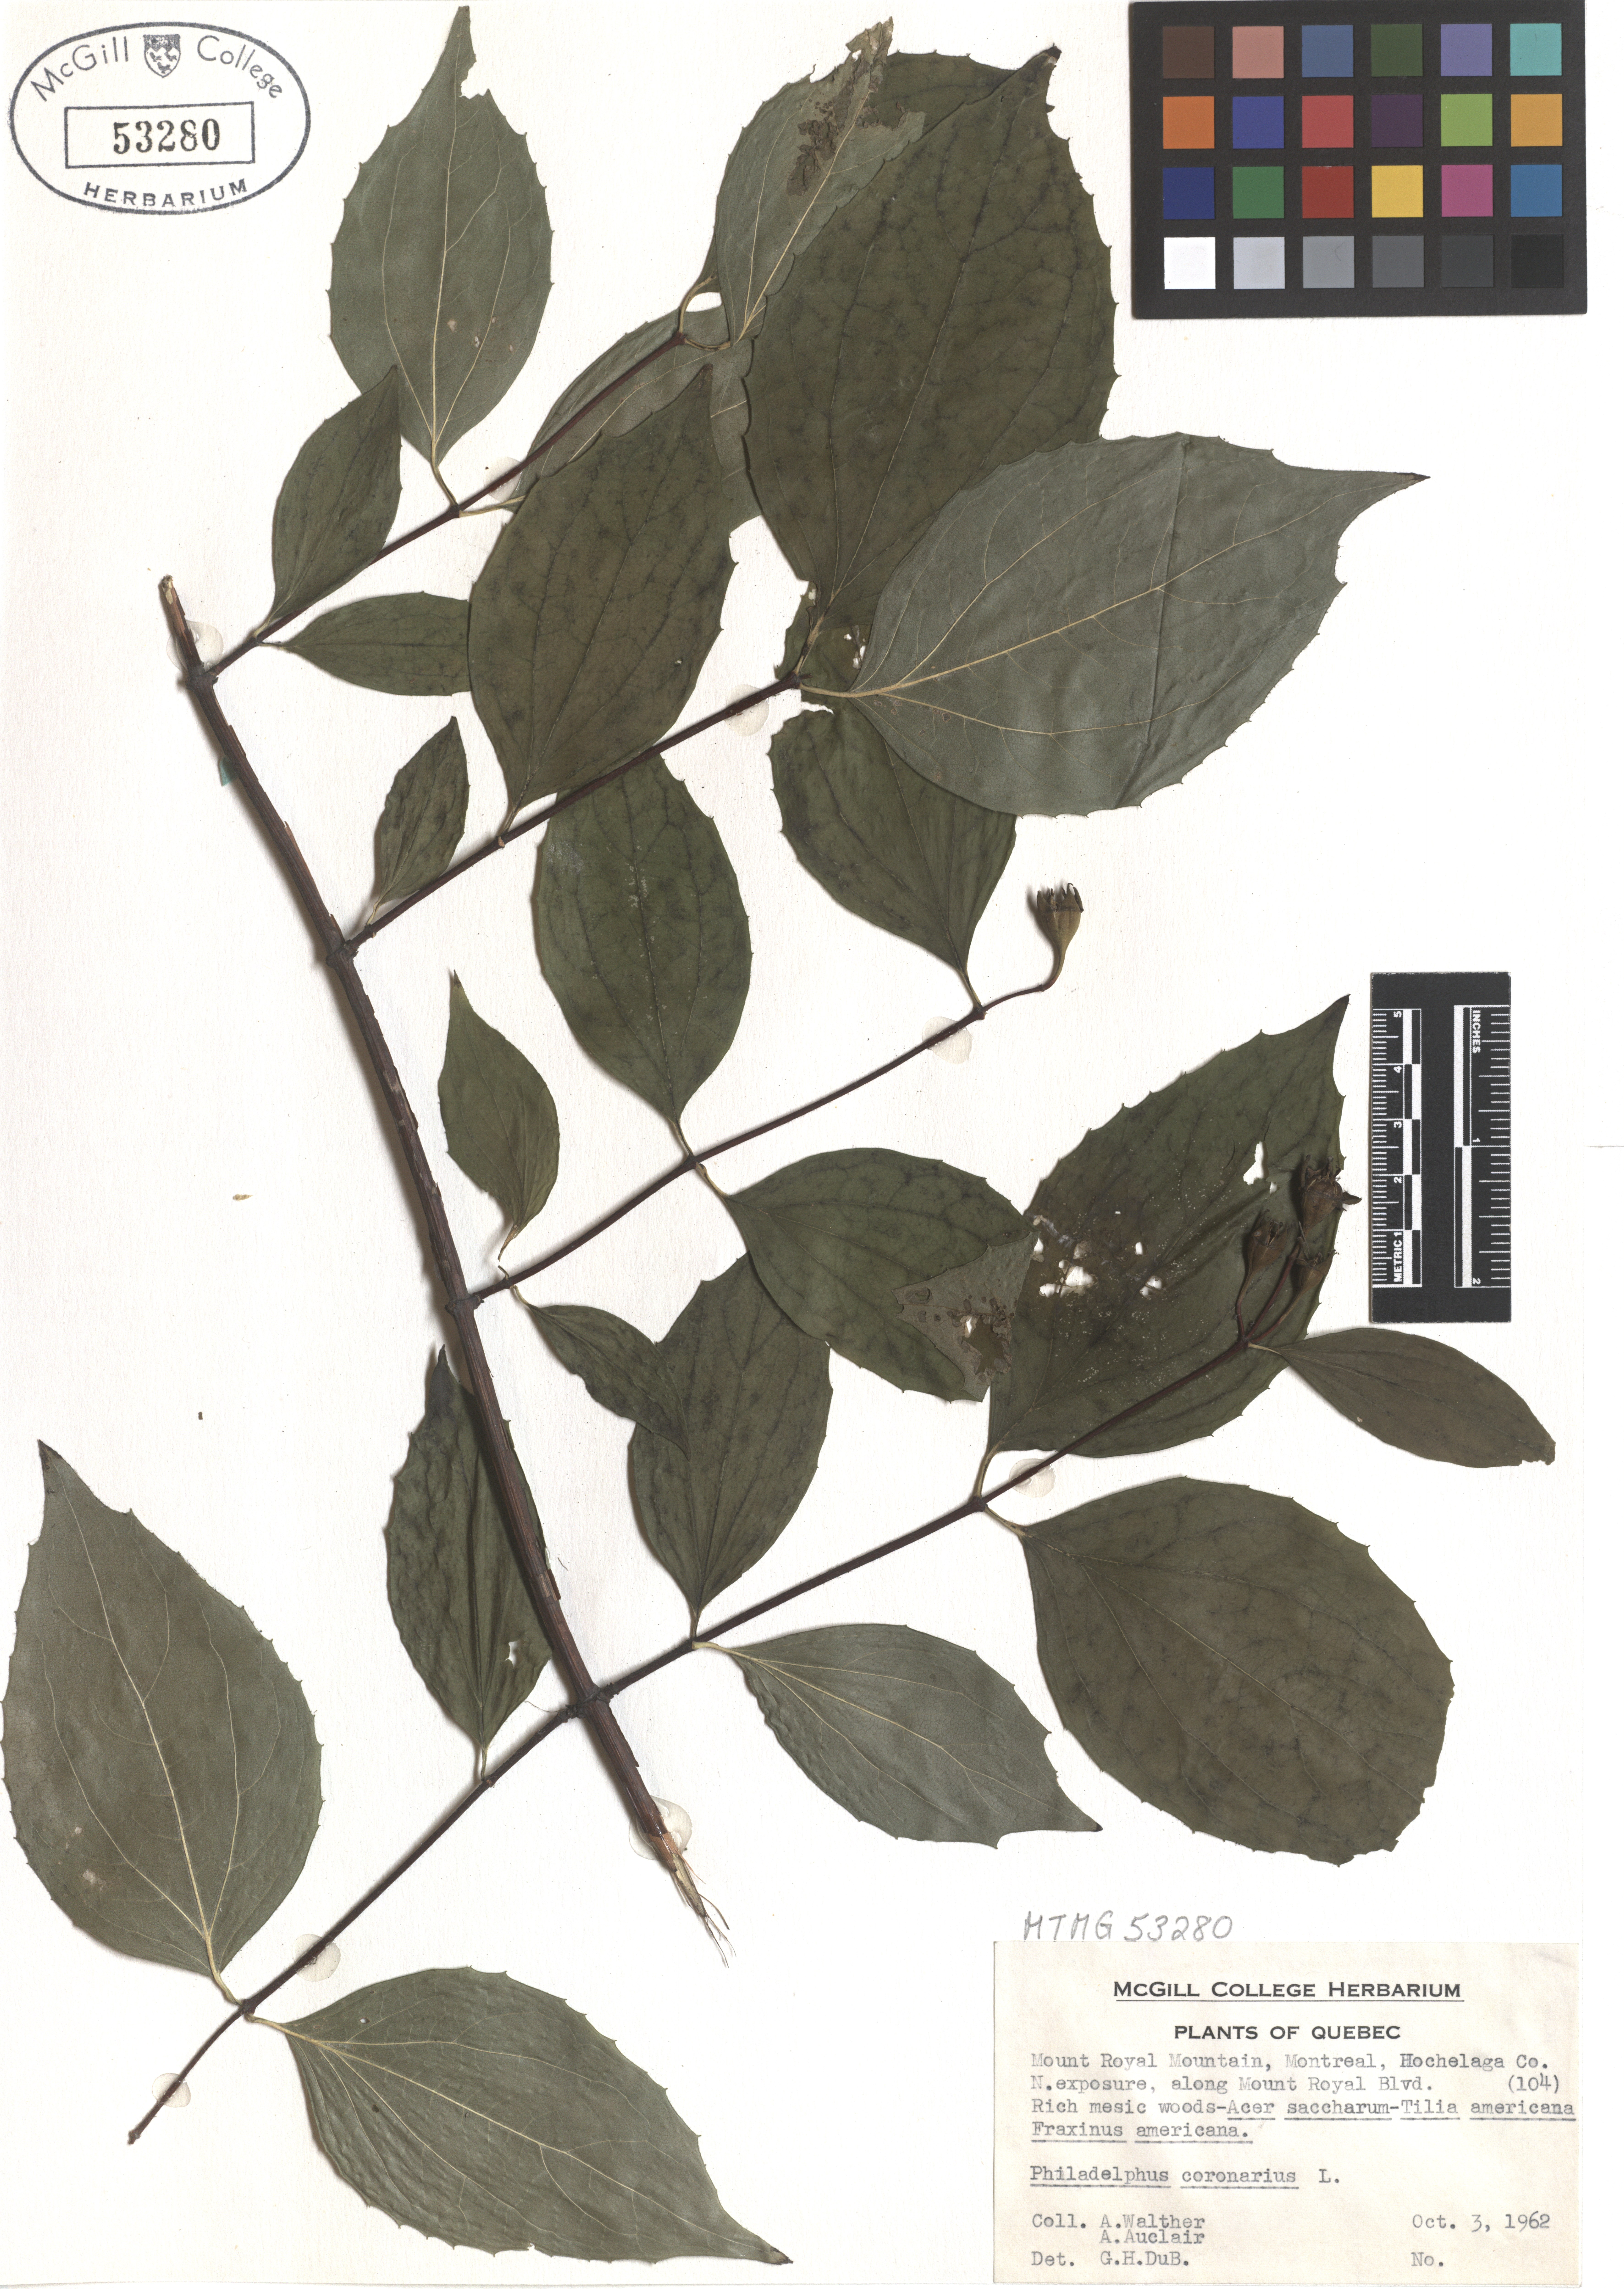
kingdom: Plantae
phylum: Tracheophyta
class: Magnoliopsida
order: Cornales
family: Hydrangeaceae
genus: Philadelphus
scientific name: Philadelphus coronarius
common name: Mock orange
